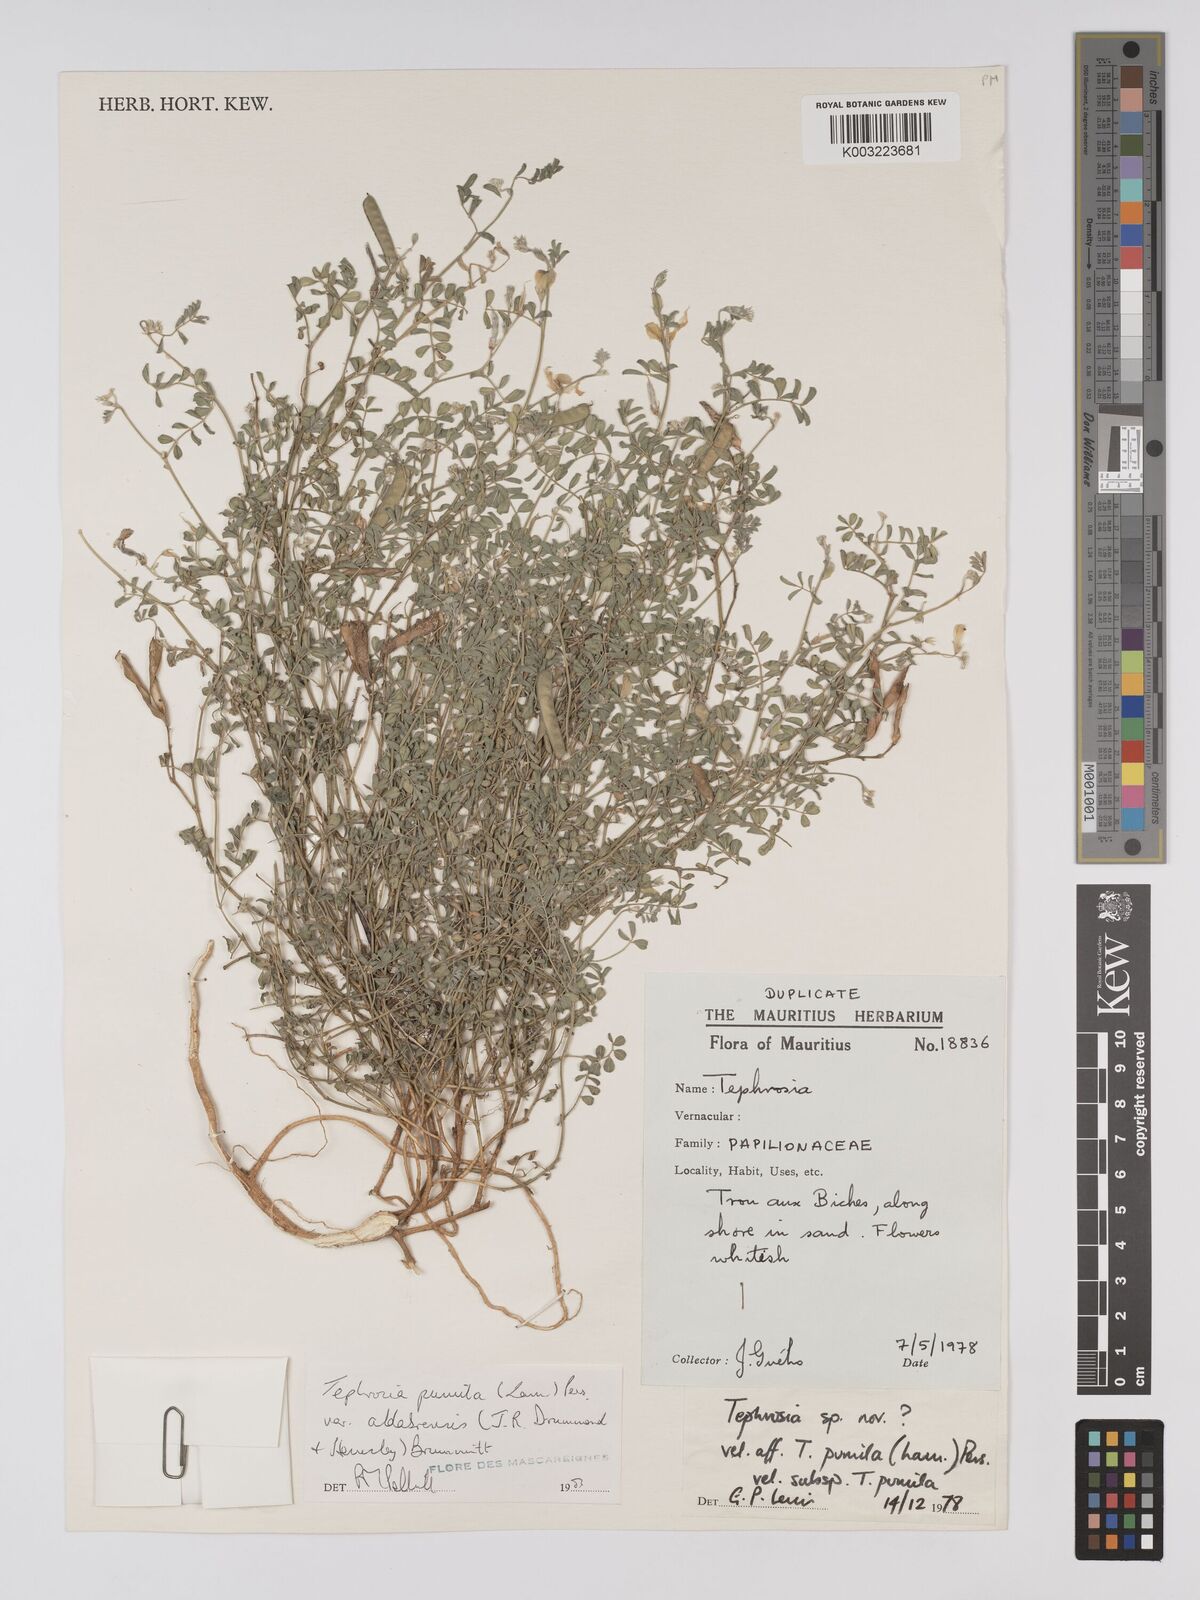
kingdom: Plantae
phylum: Tracheophyta
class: Magnoliopsida
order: Fabales
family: Fabaceae
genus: Tephrosia
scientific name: Tephrosia pumila
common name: Indigo sauvage
